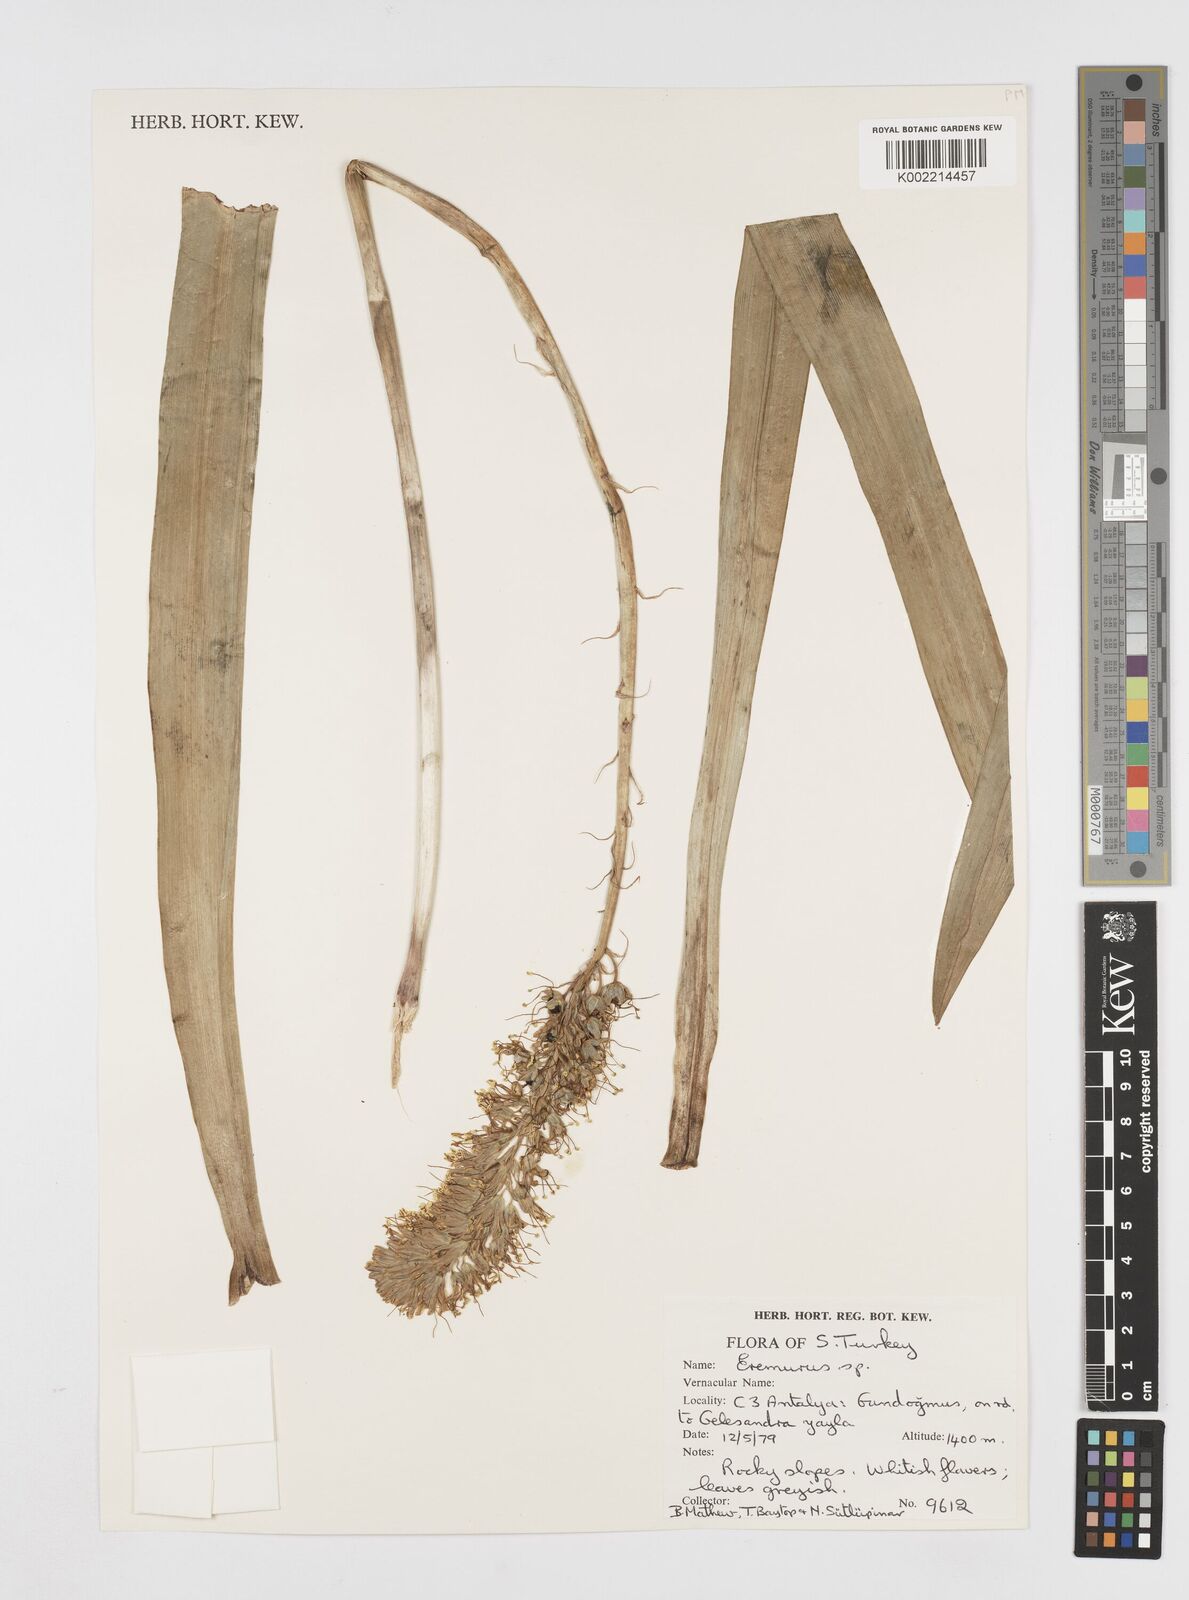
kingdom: Plantae
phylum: Tracheophyta
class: Liliopsida
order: Asparagales
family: Asphodelaceae
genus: Eremurus
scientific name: Eremurus
